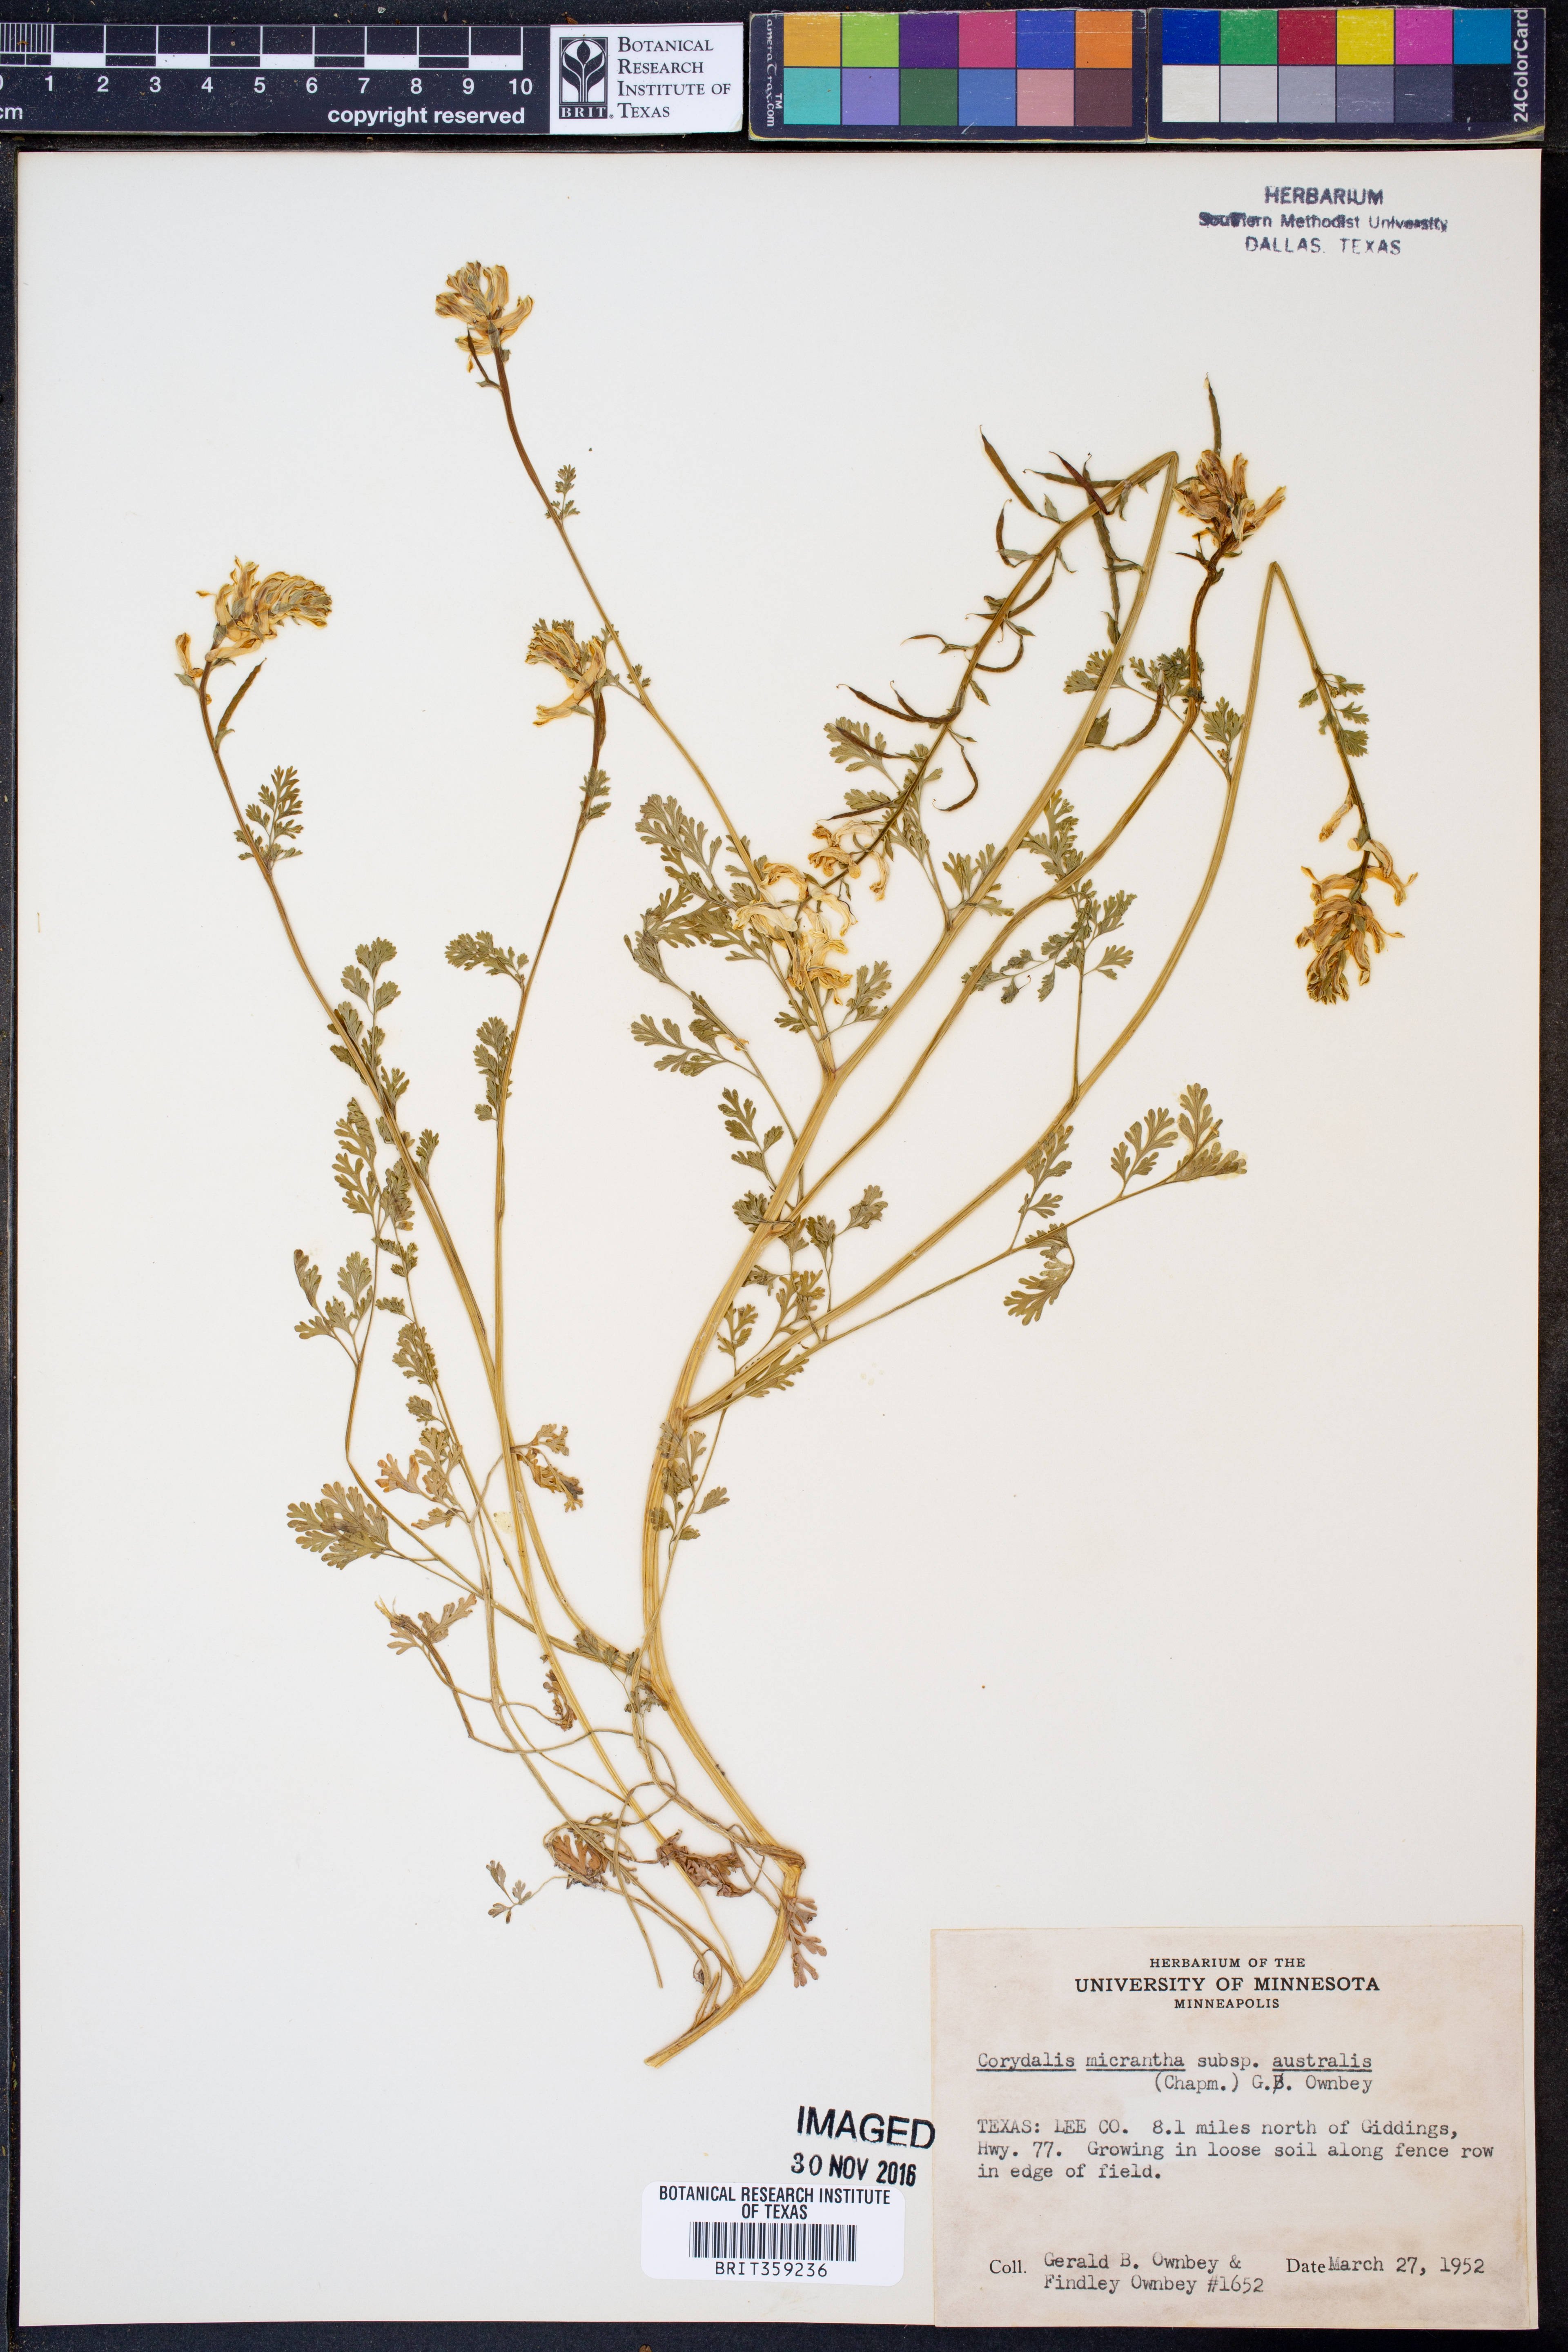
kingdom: Plantae
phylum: Tracheophyta
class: Magnoliopsida
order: Ranunculales
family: Papaveraceae
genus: Corydalis
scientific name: Corydalis micrantha
